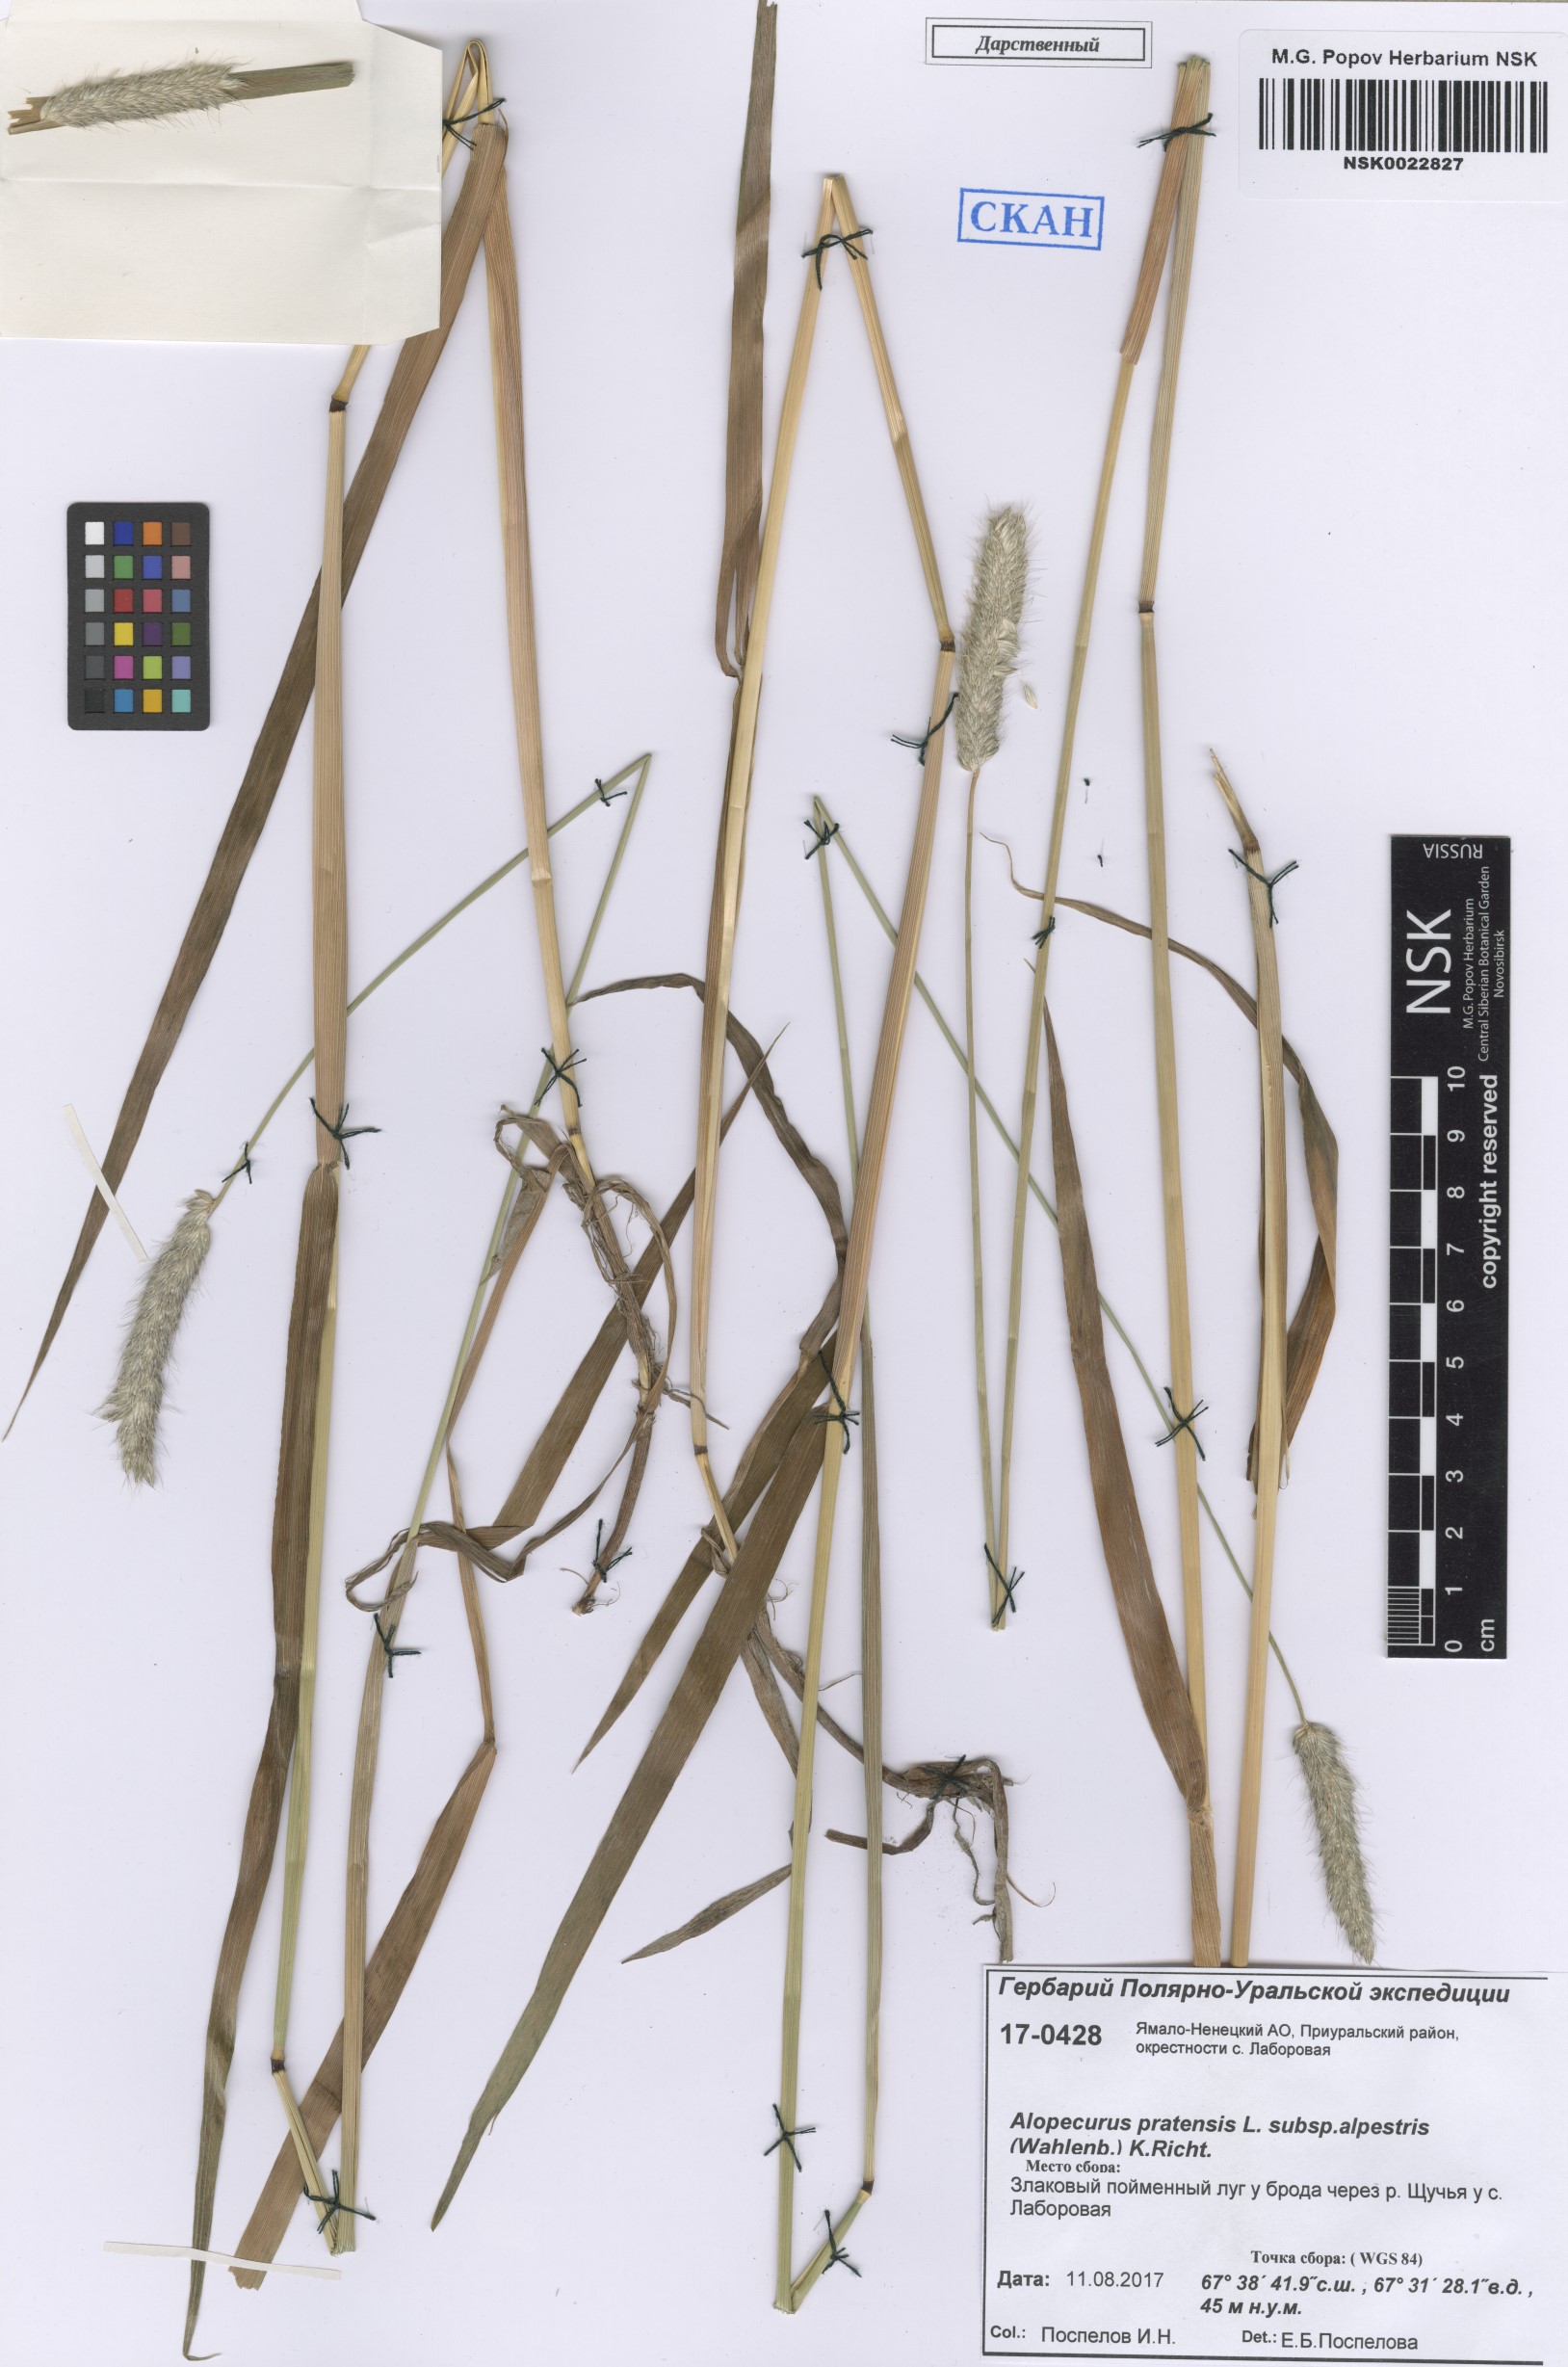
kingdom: Plantae
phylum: Tracheophyta
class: Liliopsida
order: Poales
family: Poaceae
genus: Alopecurus
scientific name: Alopecurus pratensis
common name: Meadow foxtail
